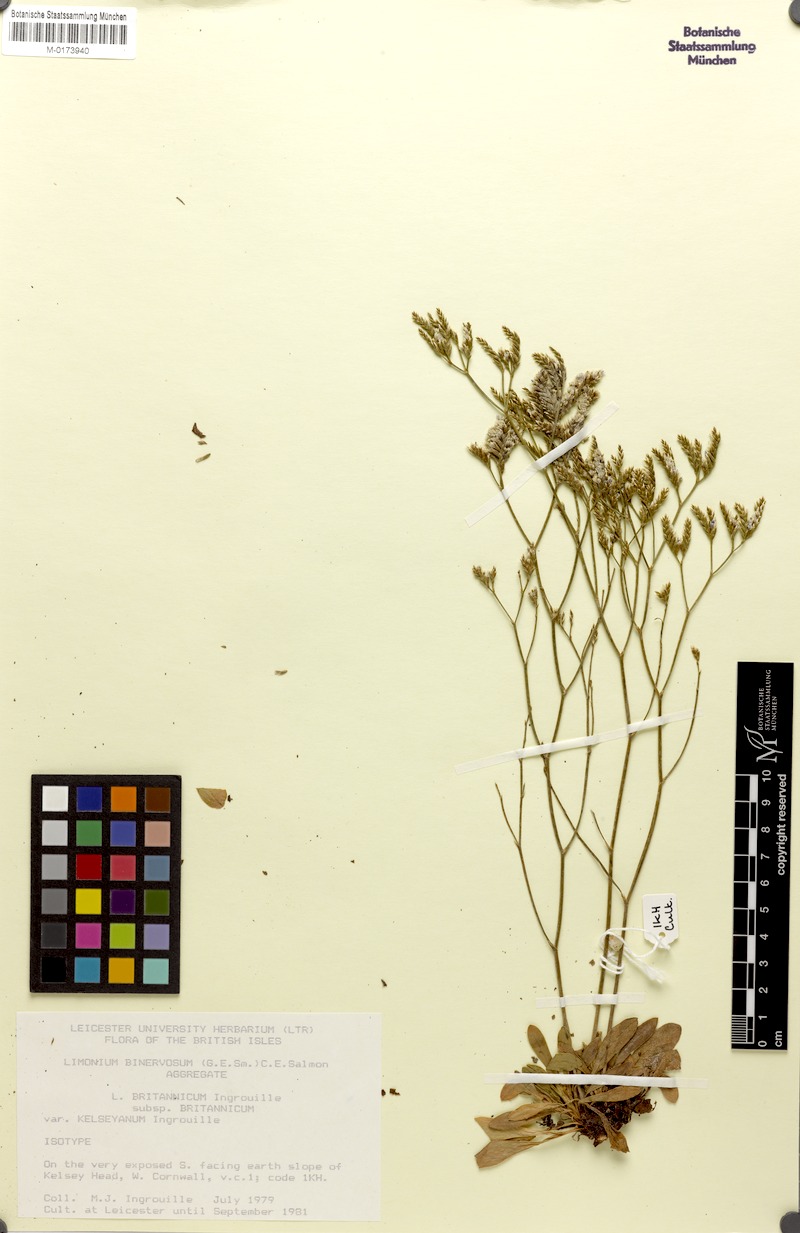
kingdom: Plantae
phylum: Tracheophyta
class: Magnoliopsida
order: Caryophyllales
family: Plumbaginaceae
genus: Limonium
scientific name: Limonium britannicum
